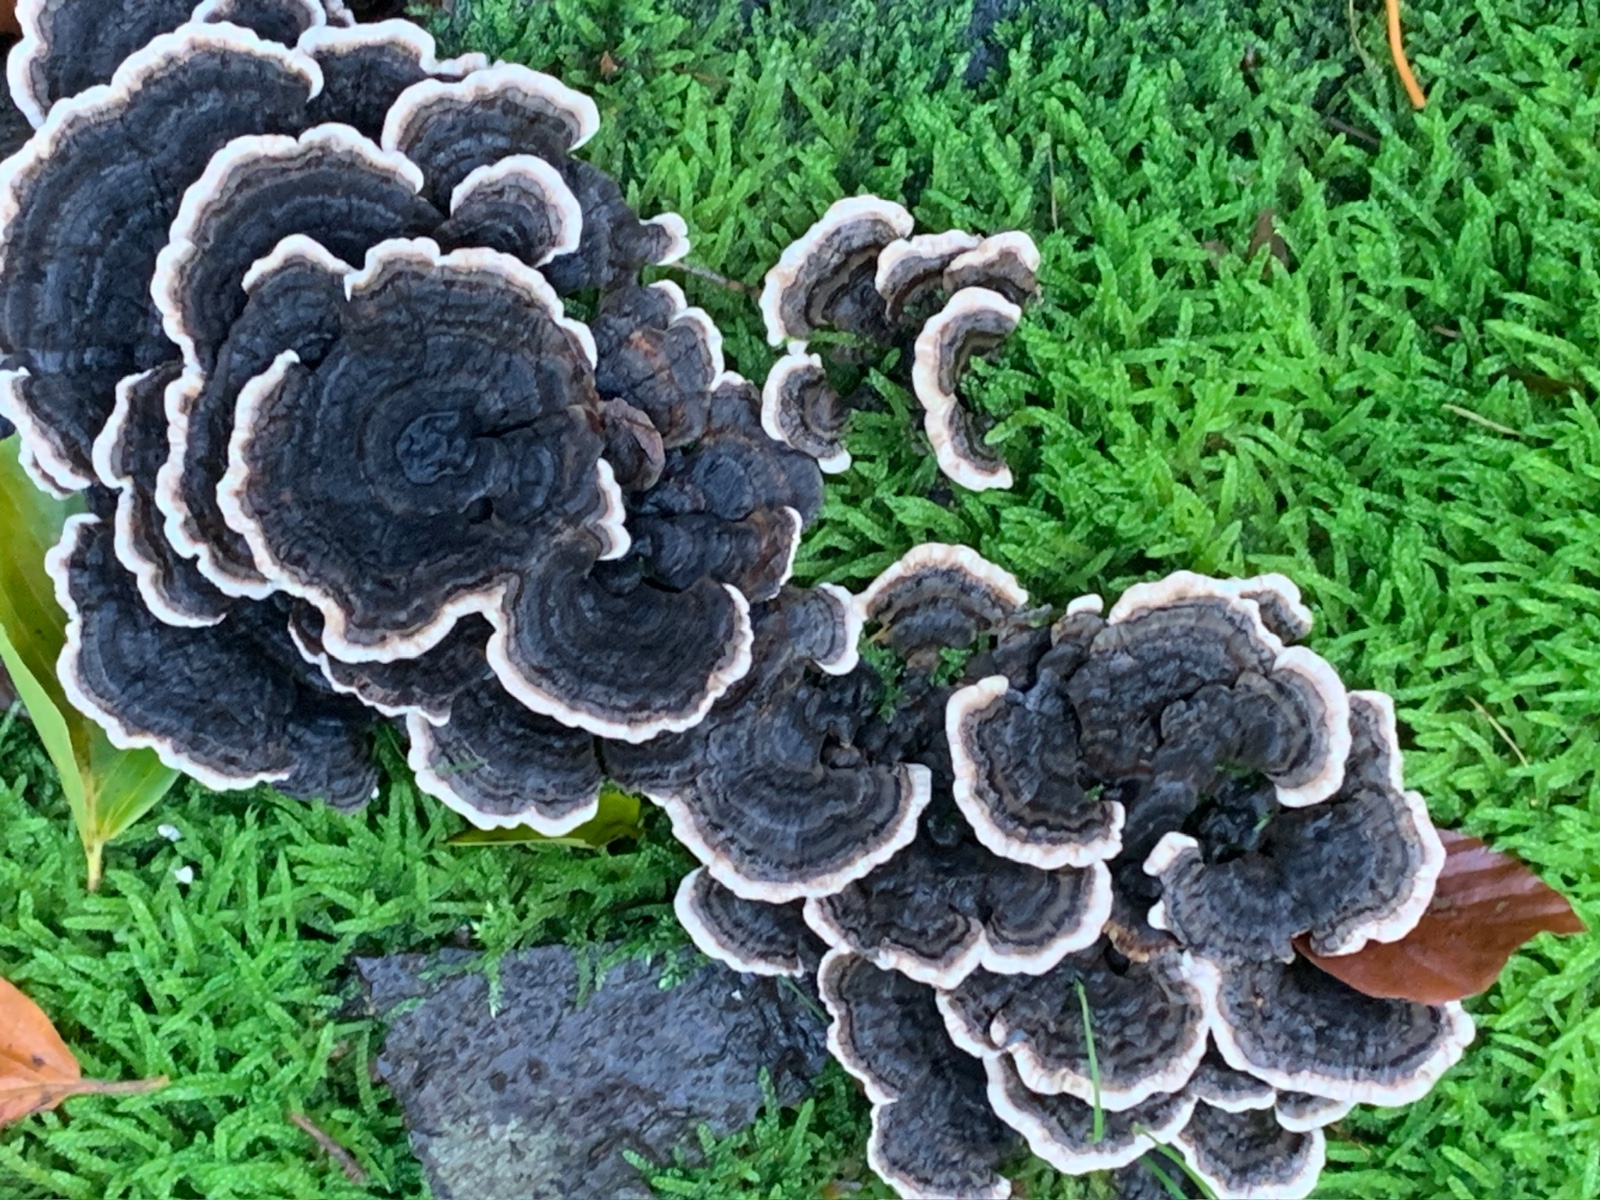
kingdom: Fungi
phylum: Basidiomycota
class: Agaricomycetes
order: Polyporales
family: Polyporaceae
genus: Trametes
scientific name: Trametes versicolor
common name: broget læderporesvamp
